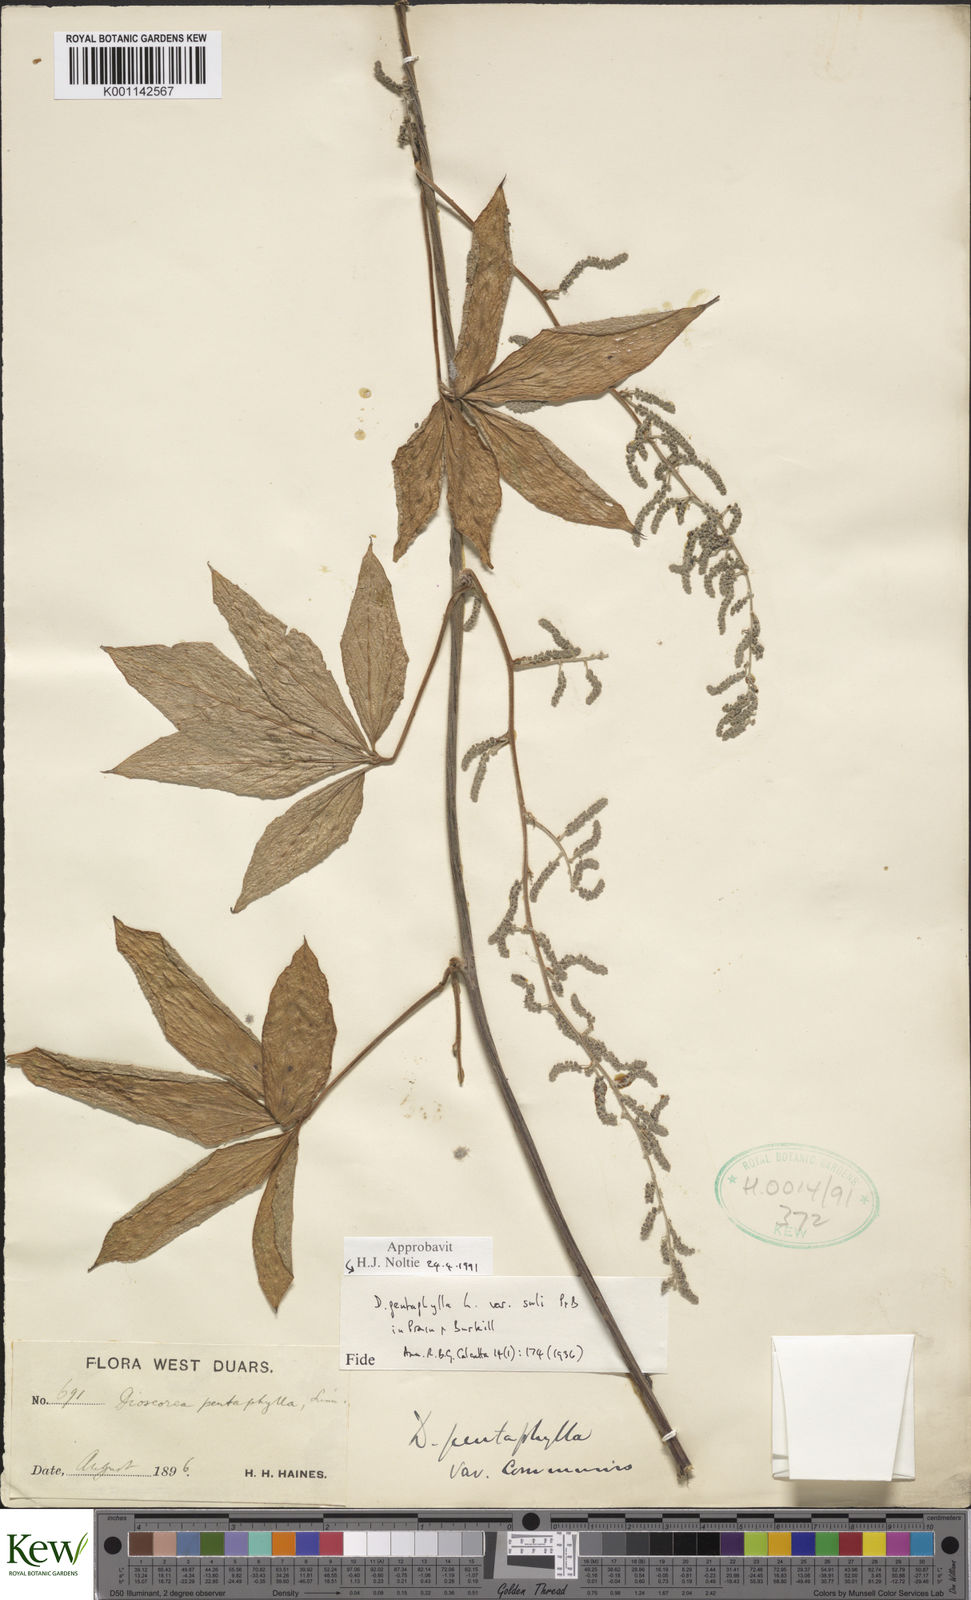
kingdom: Plantae
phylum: Tracheophyta
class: Liliopsida
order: Dioscoreales
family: Dioscoreaceae
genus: Dioscorea
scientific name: Dioscorea pentaphylla
